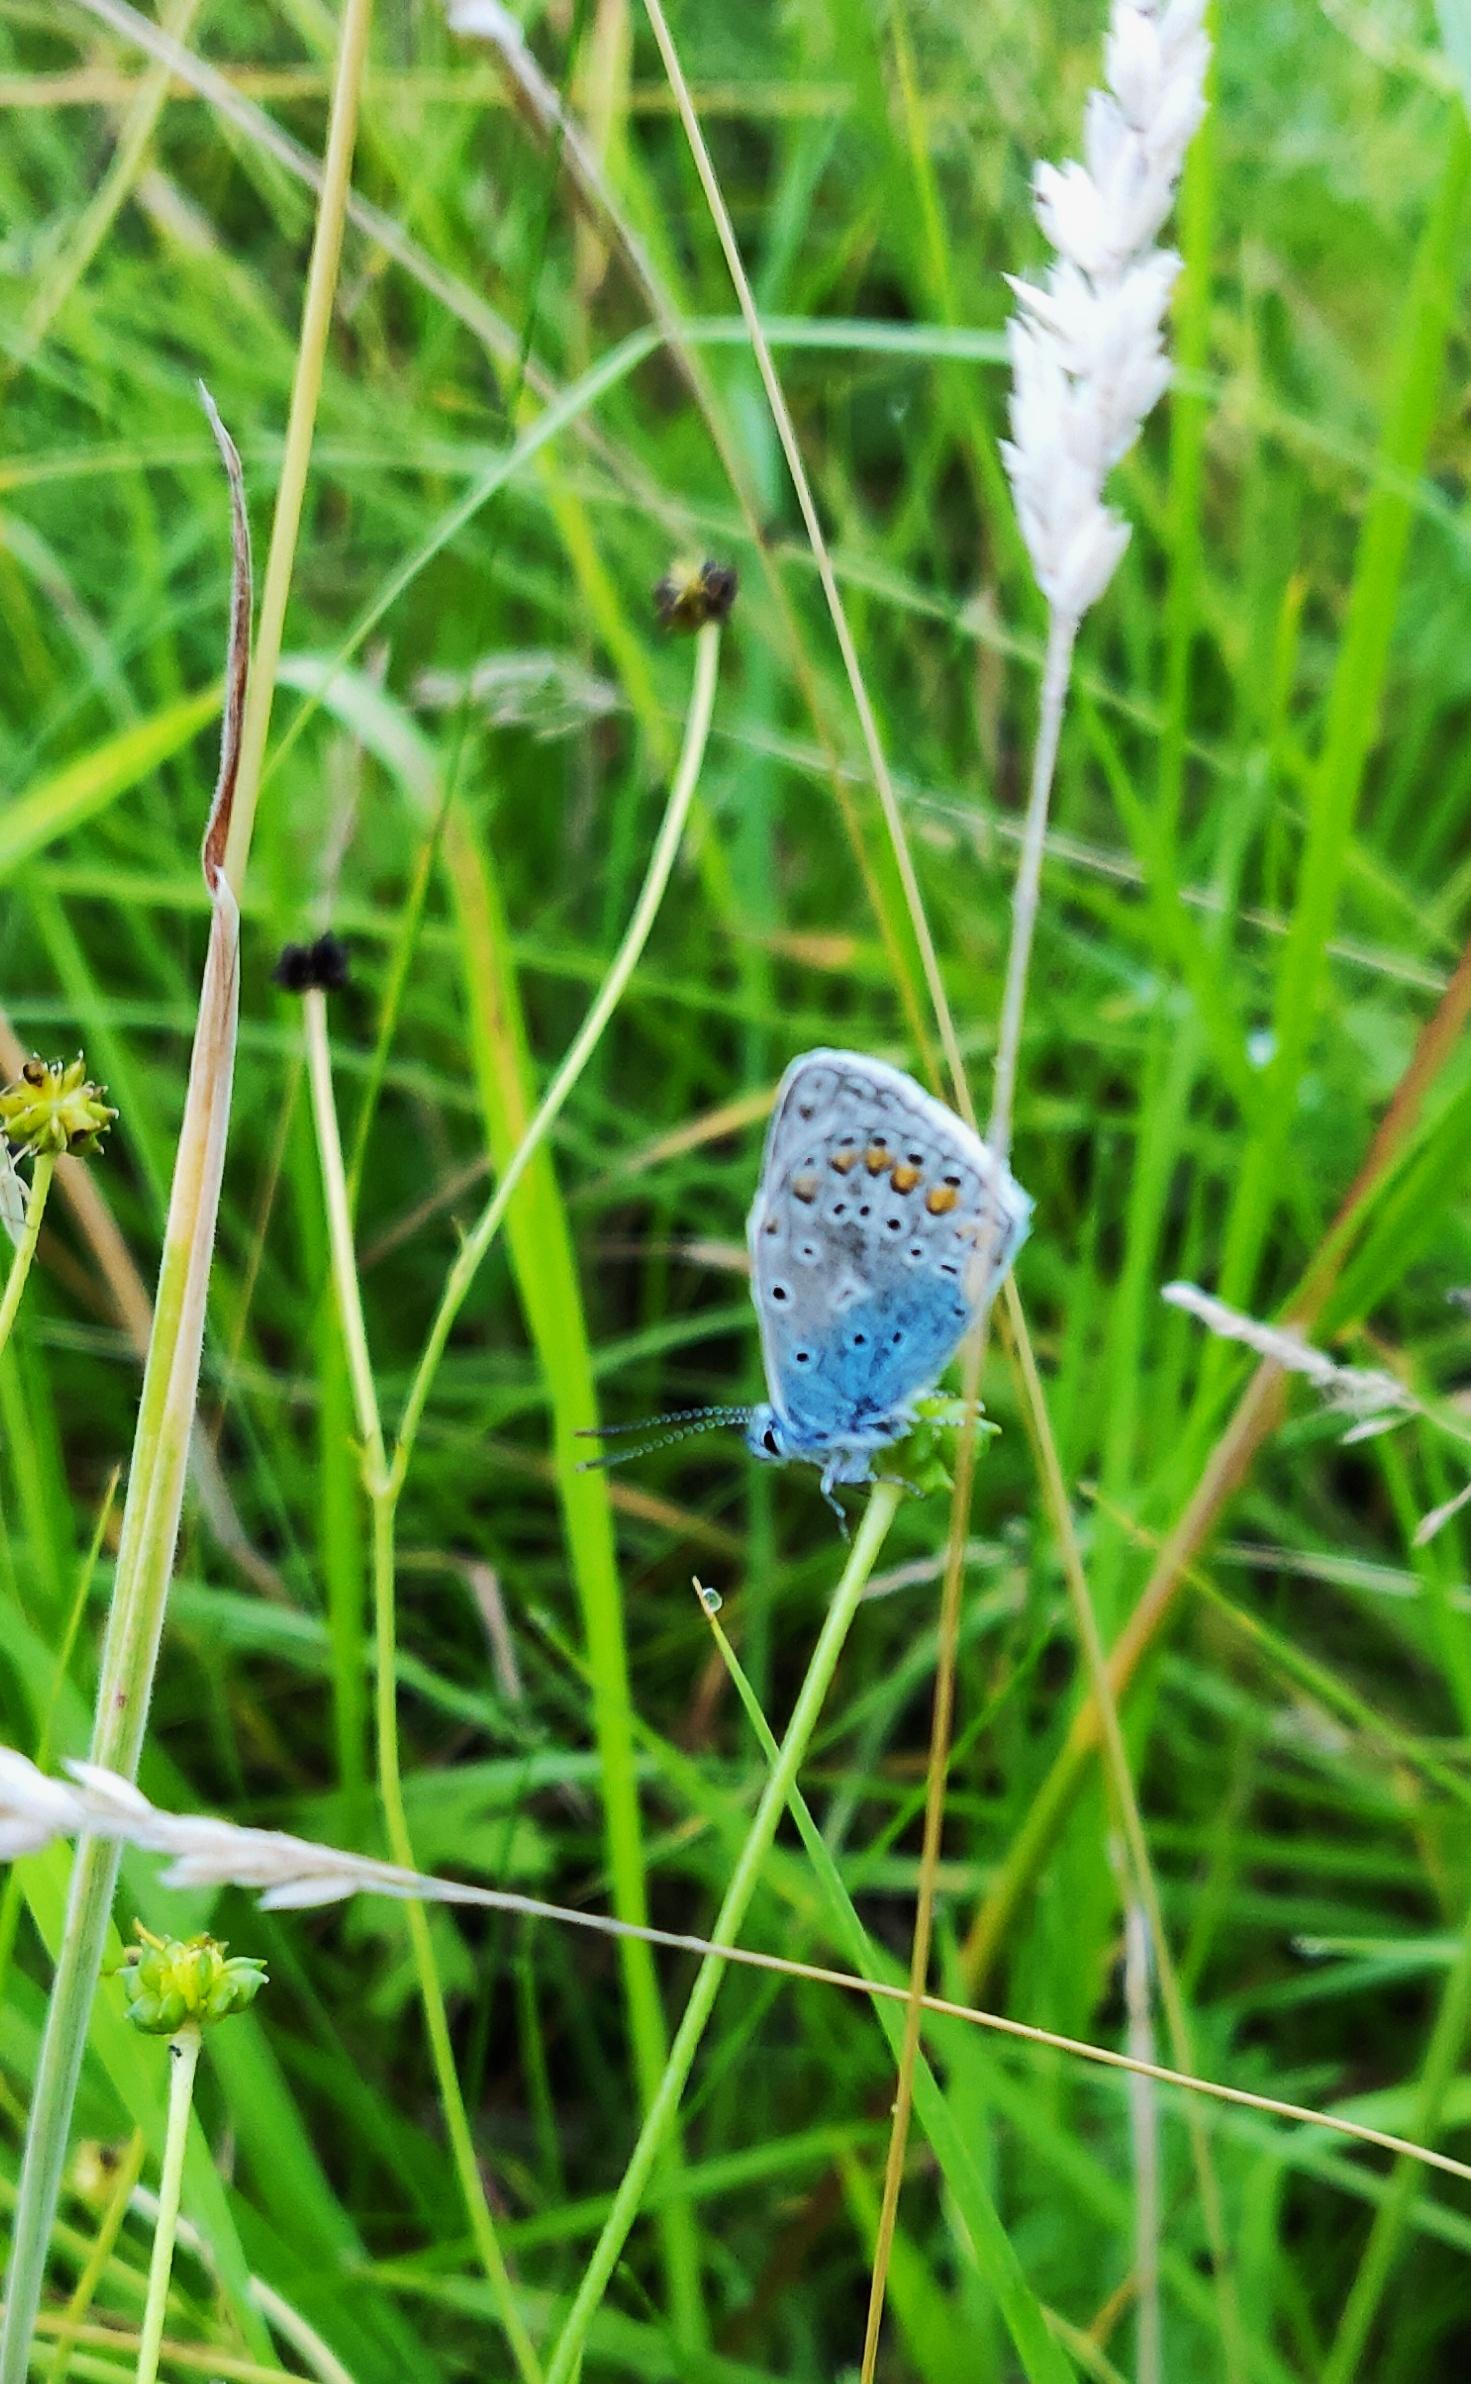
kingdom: Animalia
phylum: Arthropoda
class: Insecta
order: Lepidoptera
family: Lycaenidae
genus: Polyommatus
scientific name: Polyommatus icarus
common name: Almindelig blåfugl
